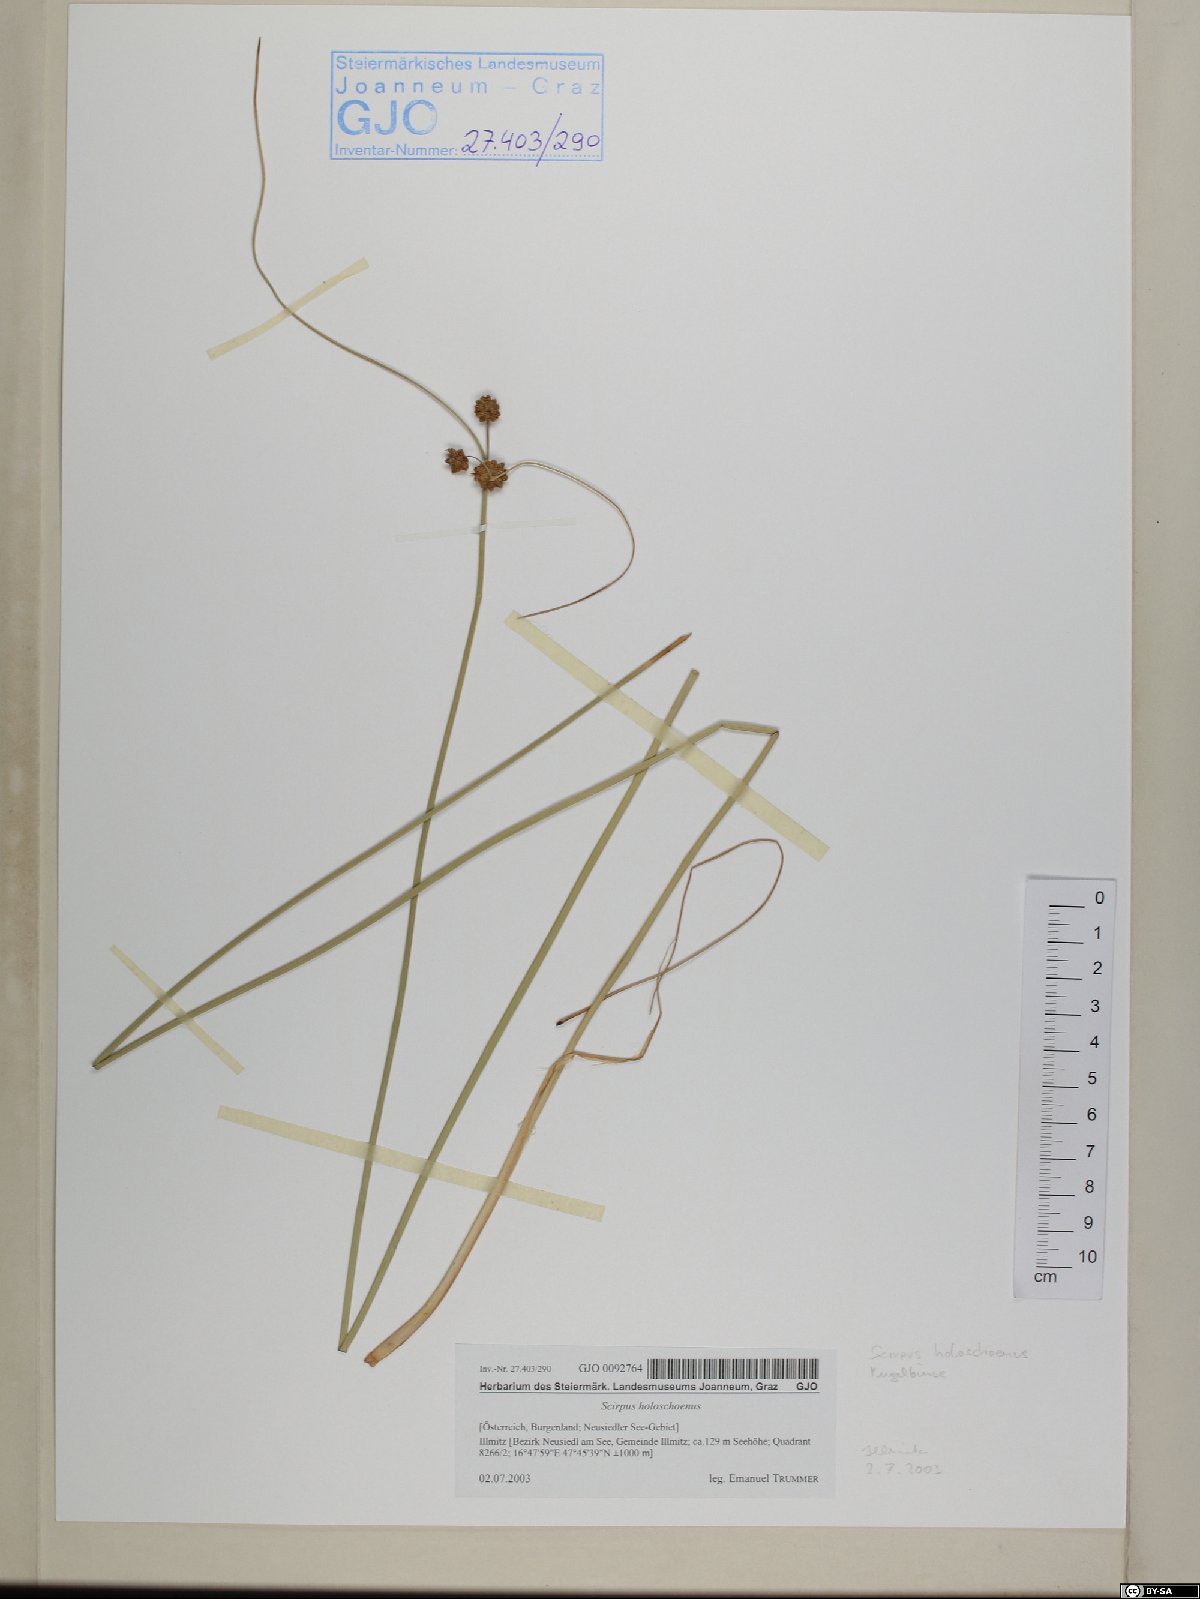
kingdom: Plantae
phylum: Tracheophyta
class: Liliopsida
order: Poales
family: Cyperaceae
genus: Scirpoides
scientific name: Scirpoides holoschoenus
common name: Round-headed club-rush
